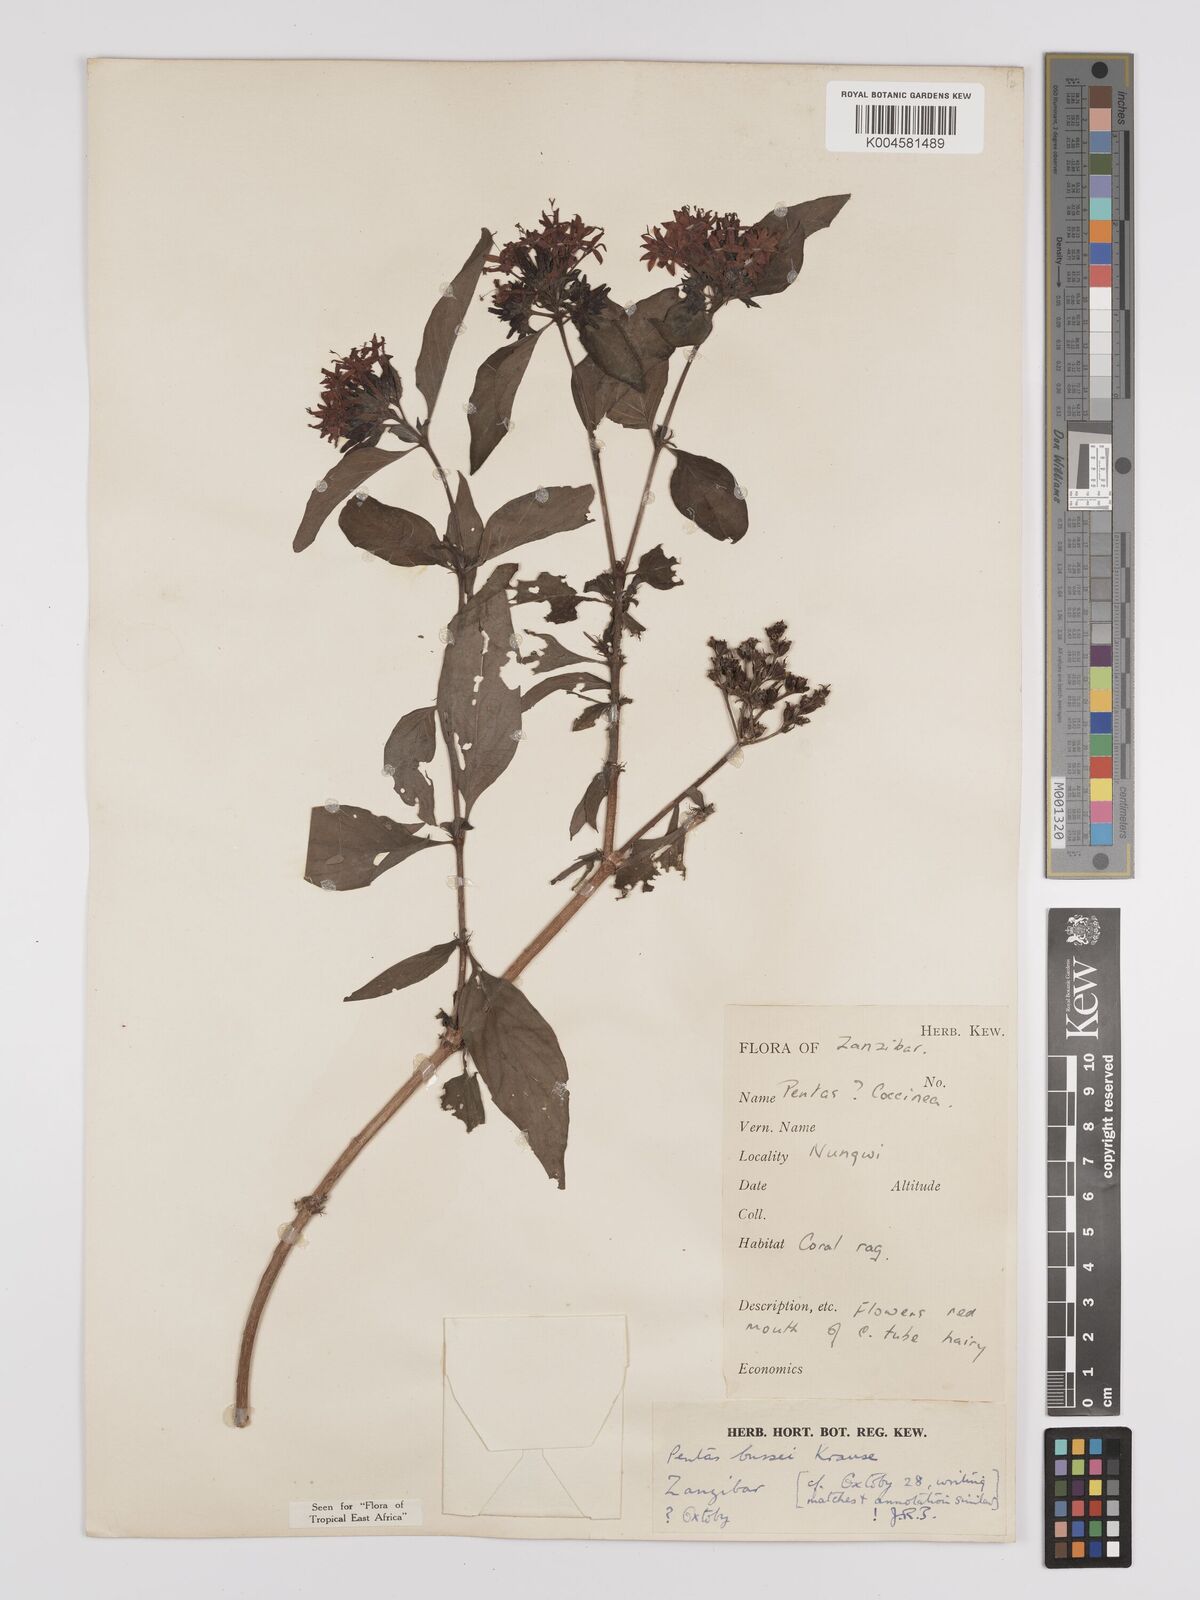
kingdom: Plantae
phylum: Tracheophyta
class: Magnoliopsida
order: Gentianales
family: Rubiaceae
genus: Rhodopentas
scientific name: Rhodopentas bussei
